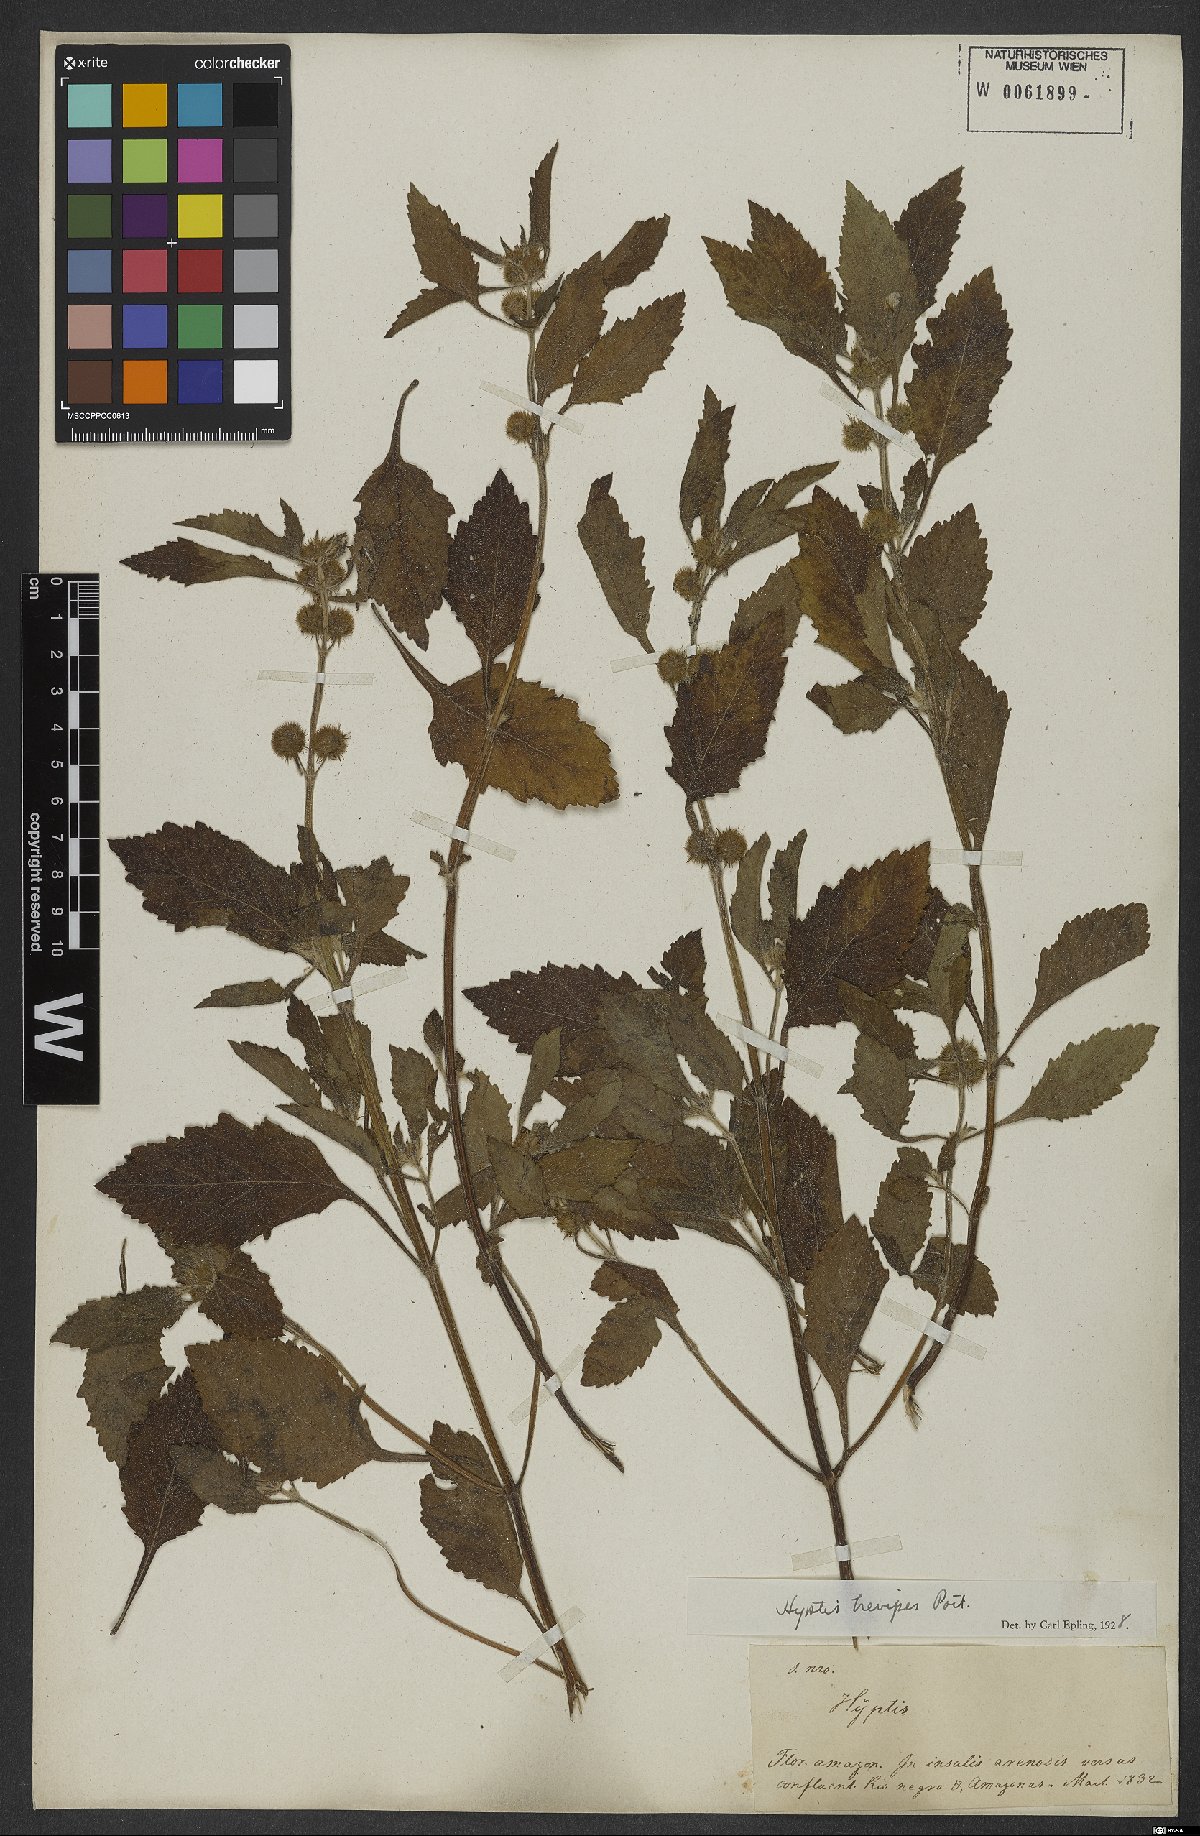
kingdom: Plantae
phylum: Tracheophyta
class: Magnoliopsida
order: Lamiales
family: Lamiaceae
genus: Hyptis
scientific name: Hyptis brevipes
